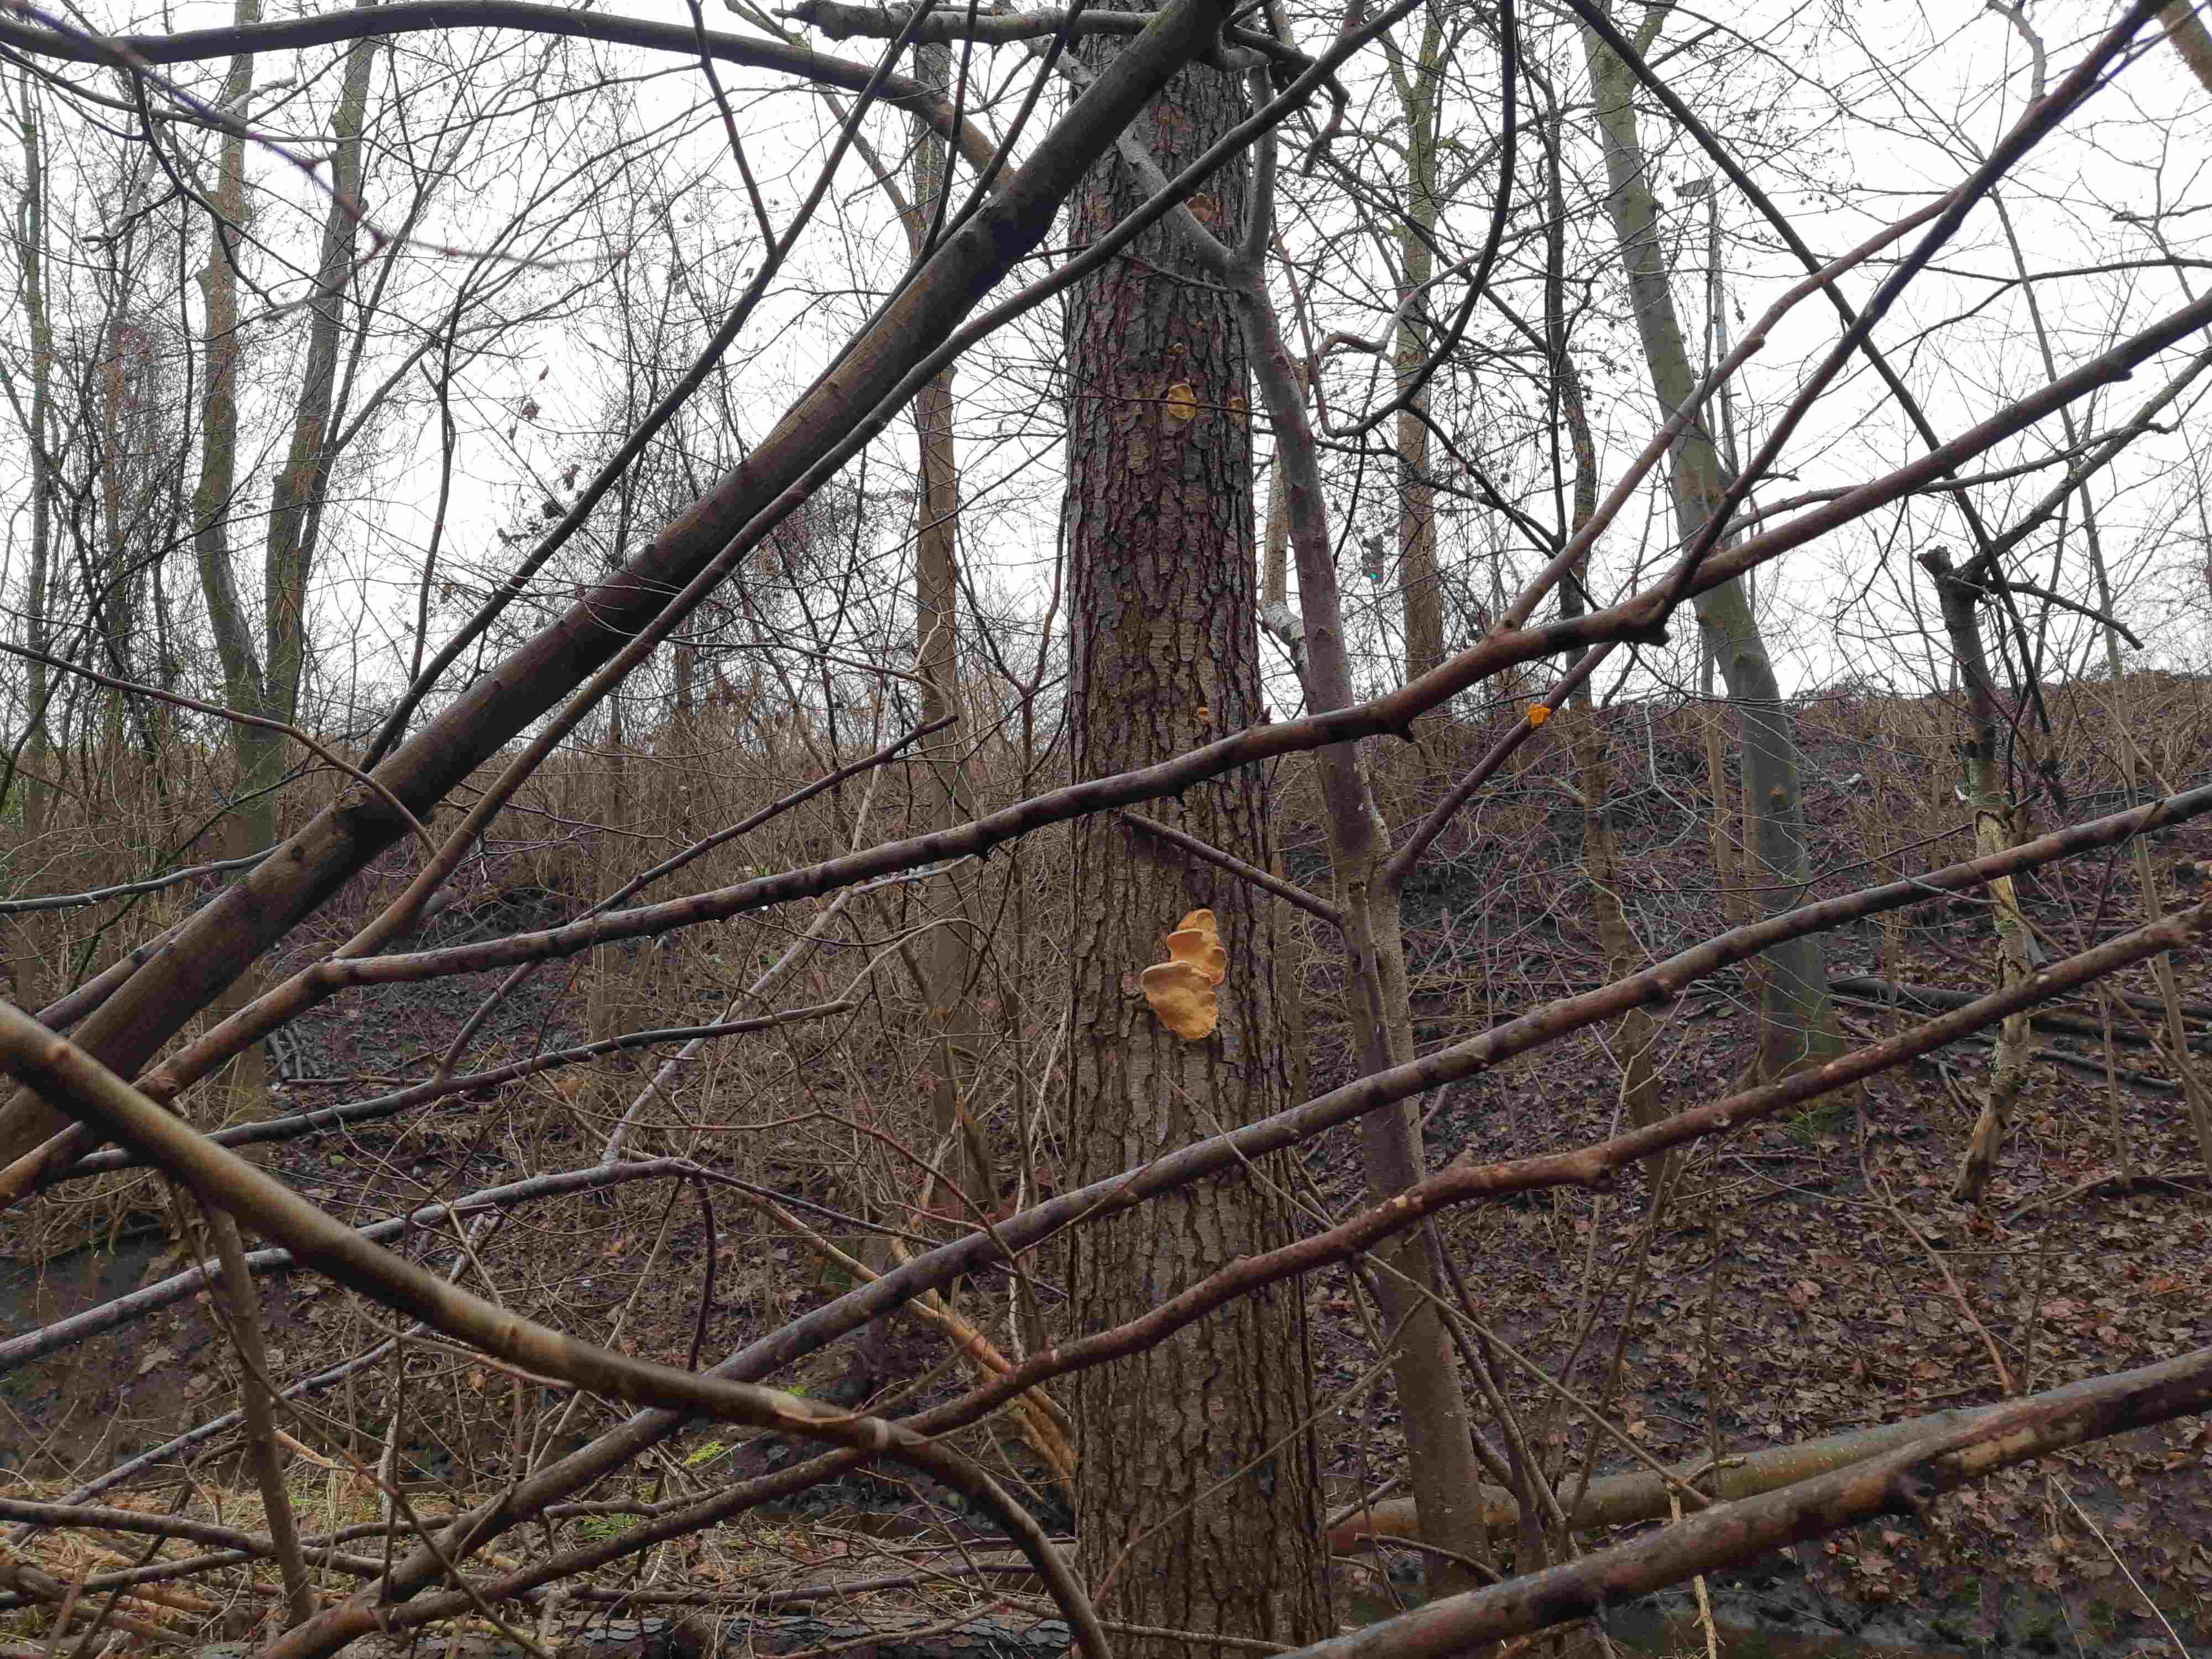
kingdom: Fungi
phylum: Basidiomycota
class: Agaricomycetes
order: Polyporales
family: Fomitopsidaceae
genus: Fomitopsis
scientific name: Fomitopsis pinicola
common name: randbæltet hovporesvamp
